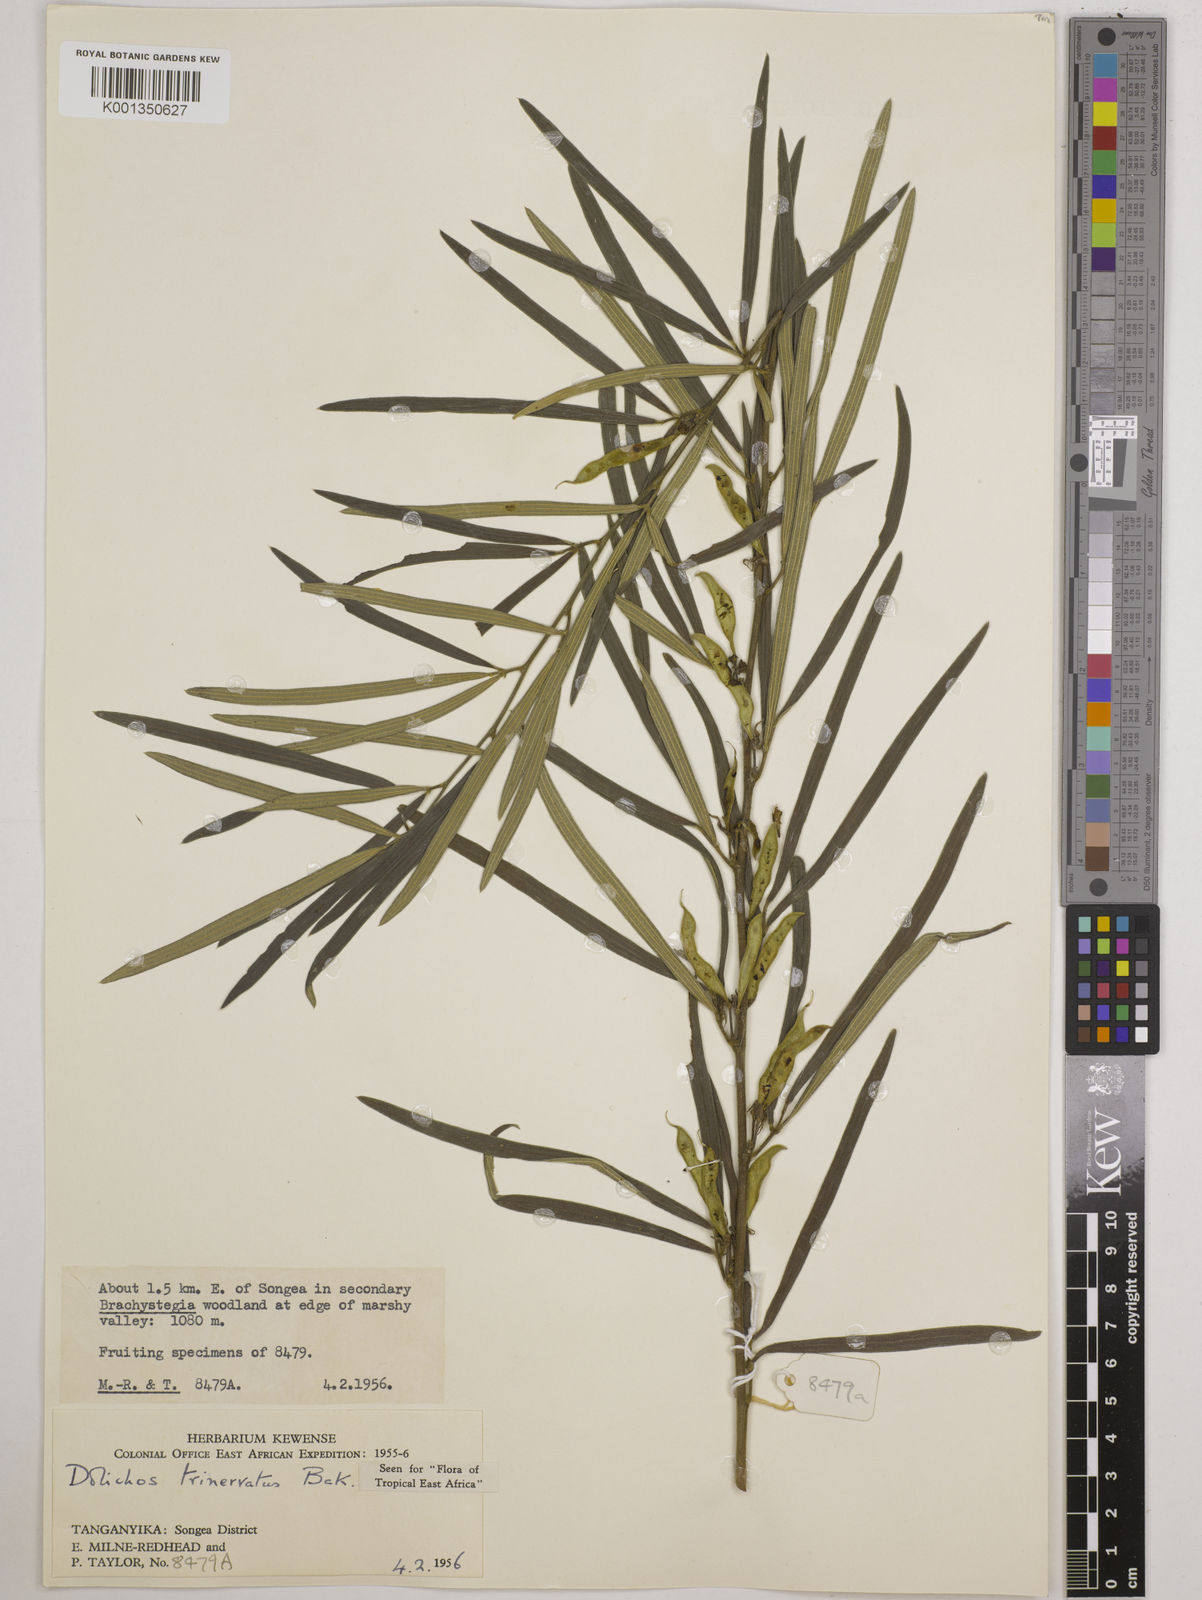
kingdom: Plantae
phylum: Tracheophyta
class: Magnoliopsida
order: Fabales
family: Fabaceae
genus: Dolichos
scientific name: Dolichos trinervatus
